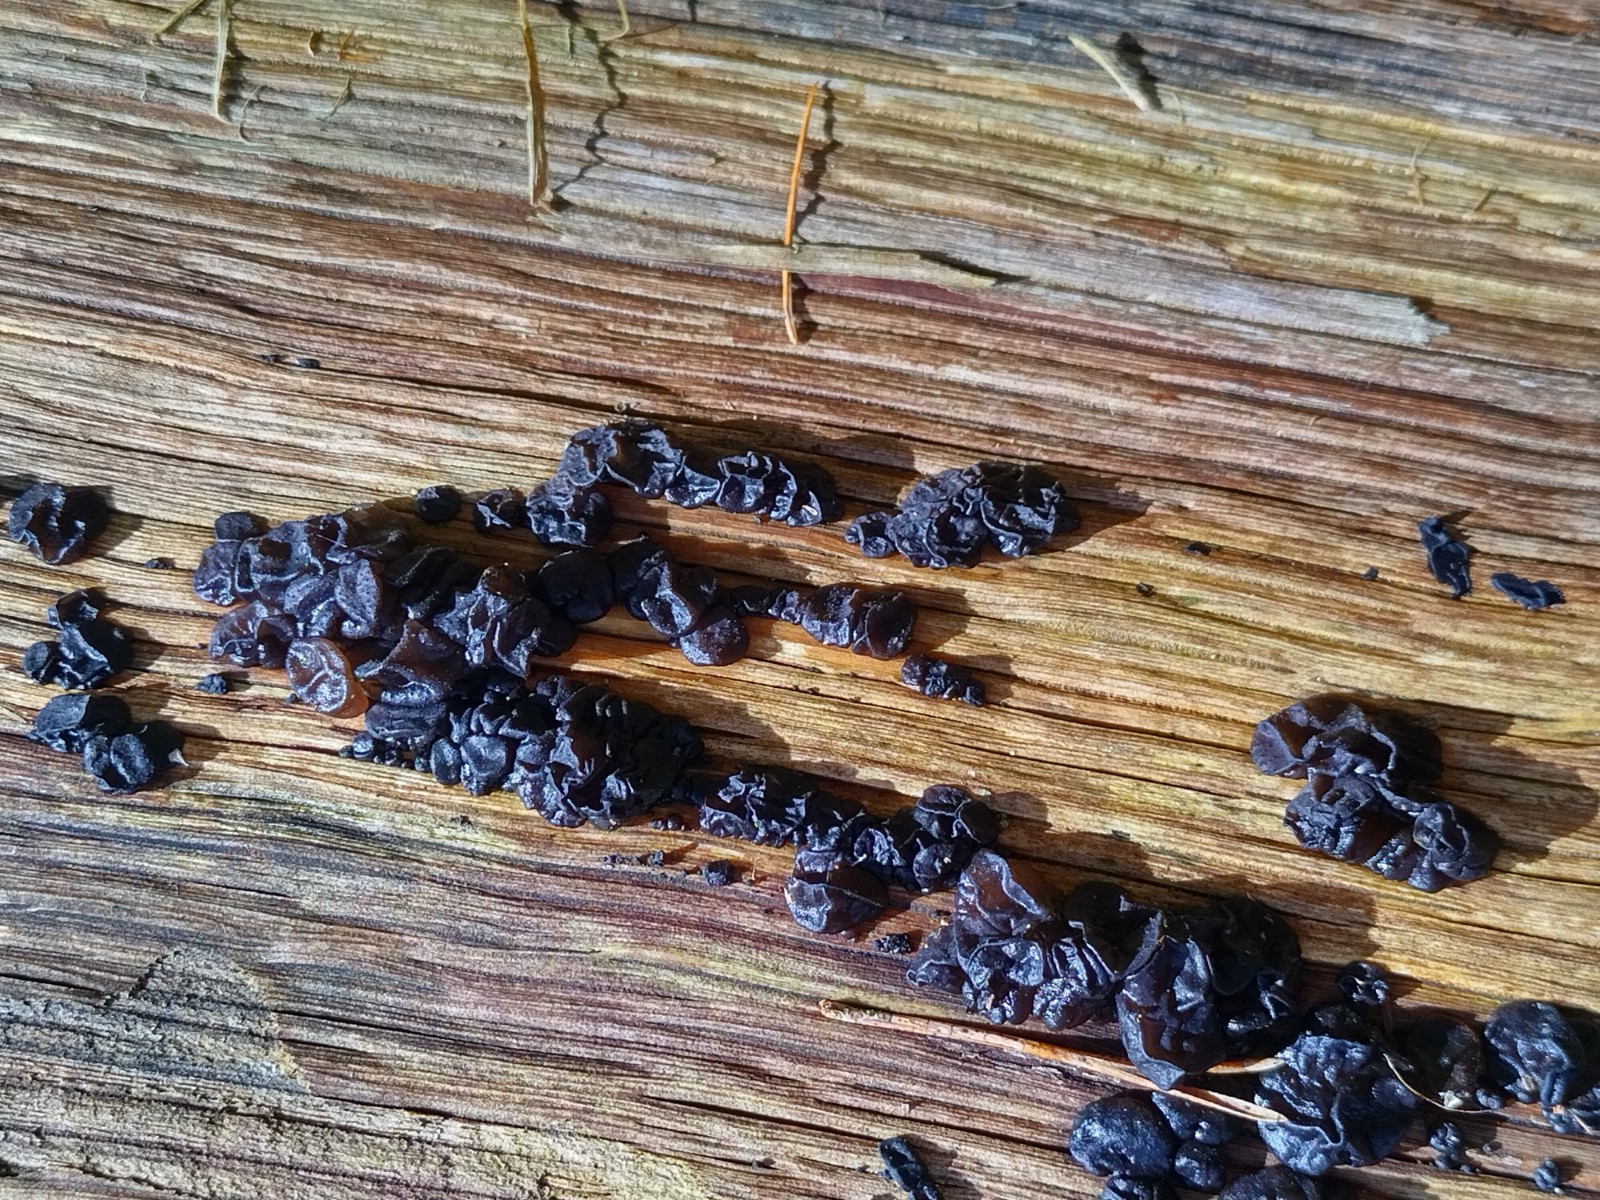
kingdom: Fungi
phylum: Basidiomycota
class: Agaricomycetes
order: Auriculariales
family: Auriculariaceae
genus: Exidia
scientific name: Exidia glandulosa
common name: ege-bævretop
